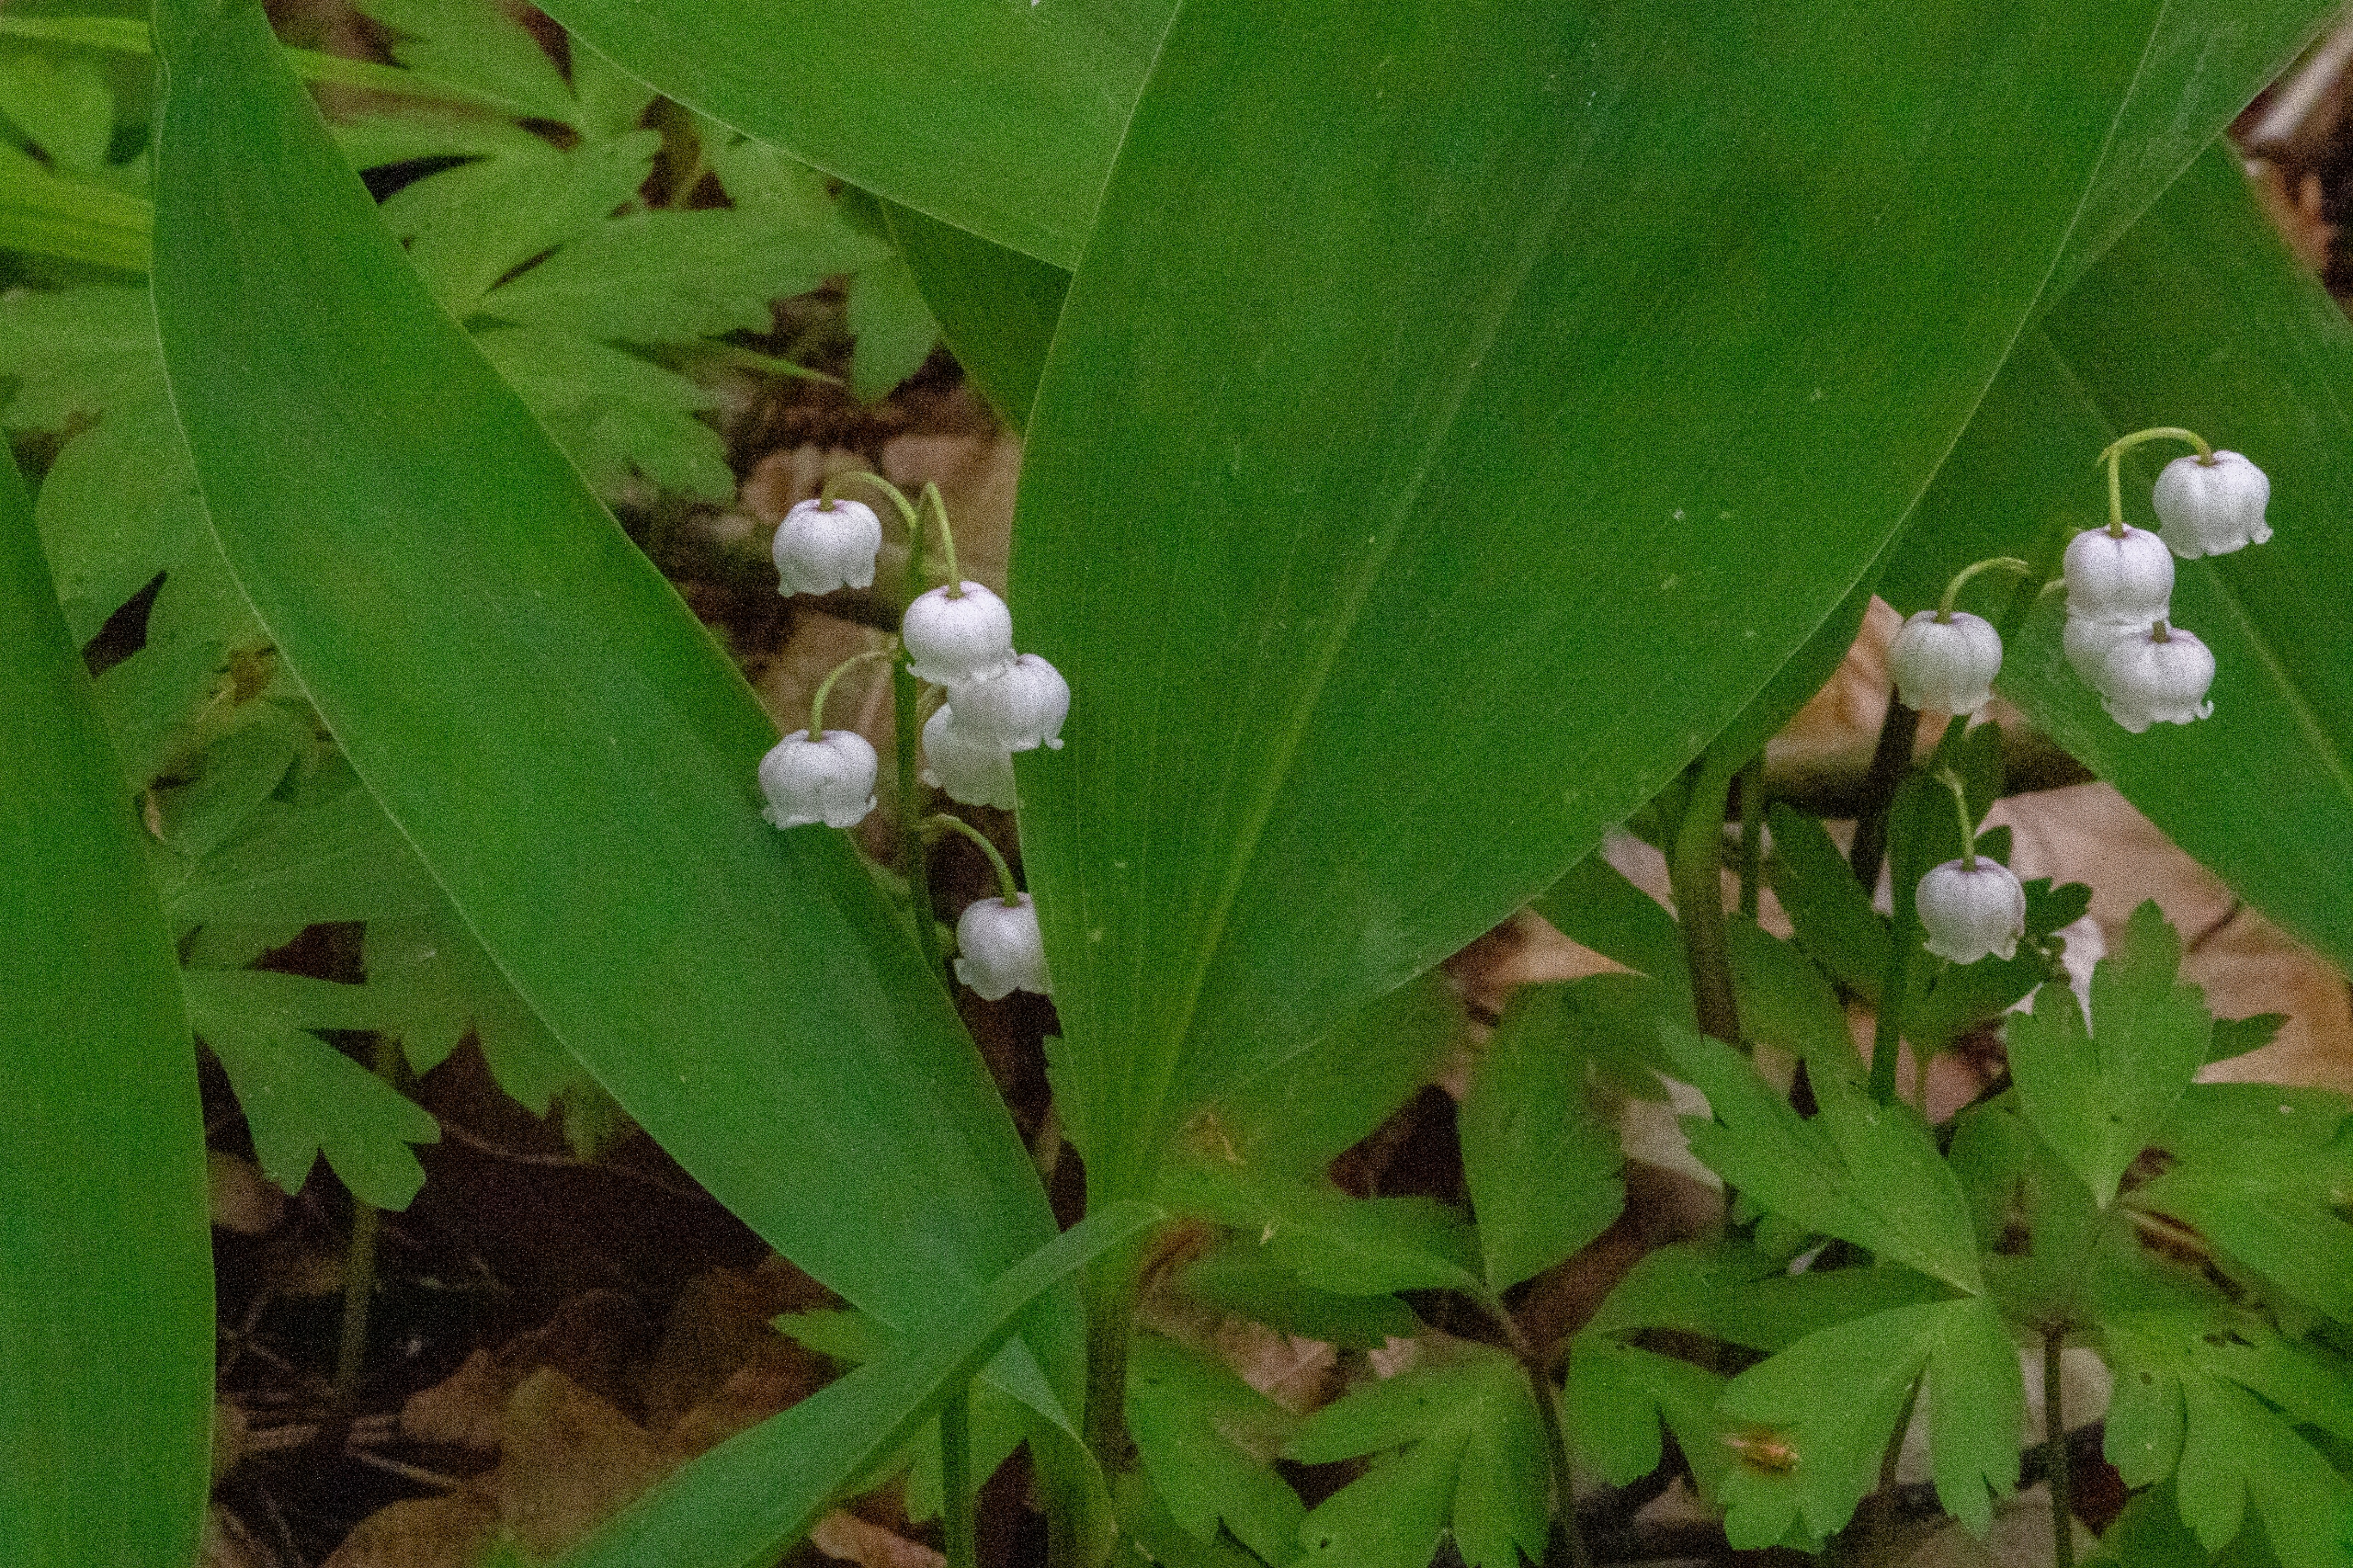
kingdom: Plantae
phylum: Tracheophyta
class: Liliopsida
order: Asparagales
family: Asparagaceae
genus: Convallaria
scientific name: Convallaria majalis
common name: Liljekonval
